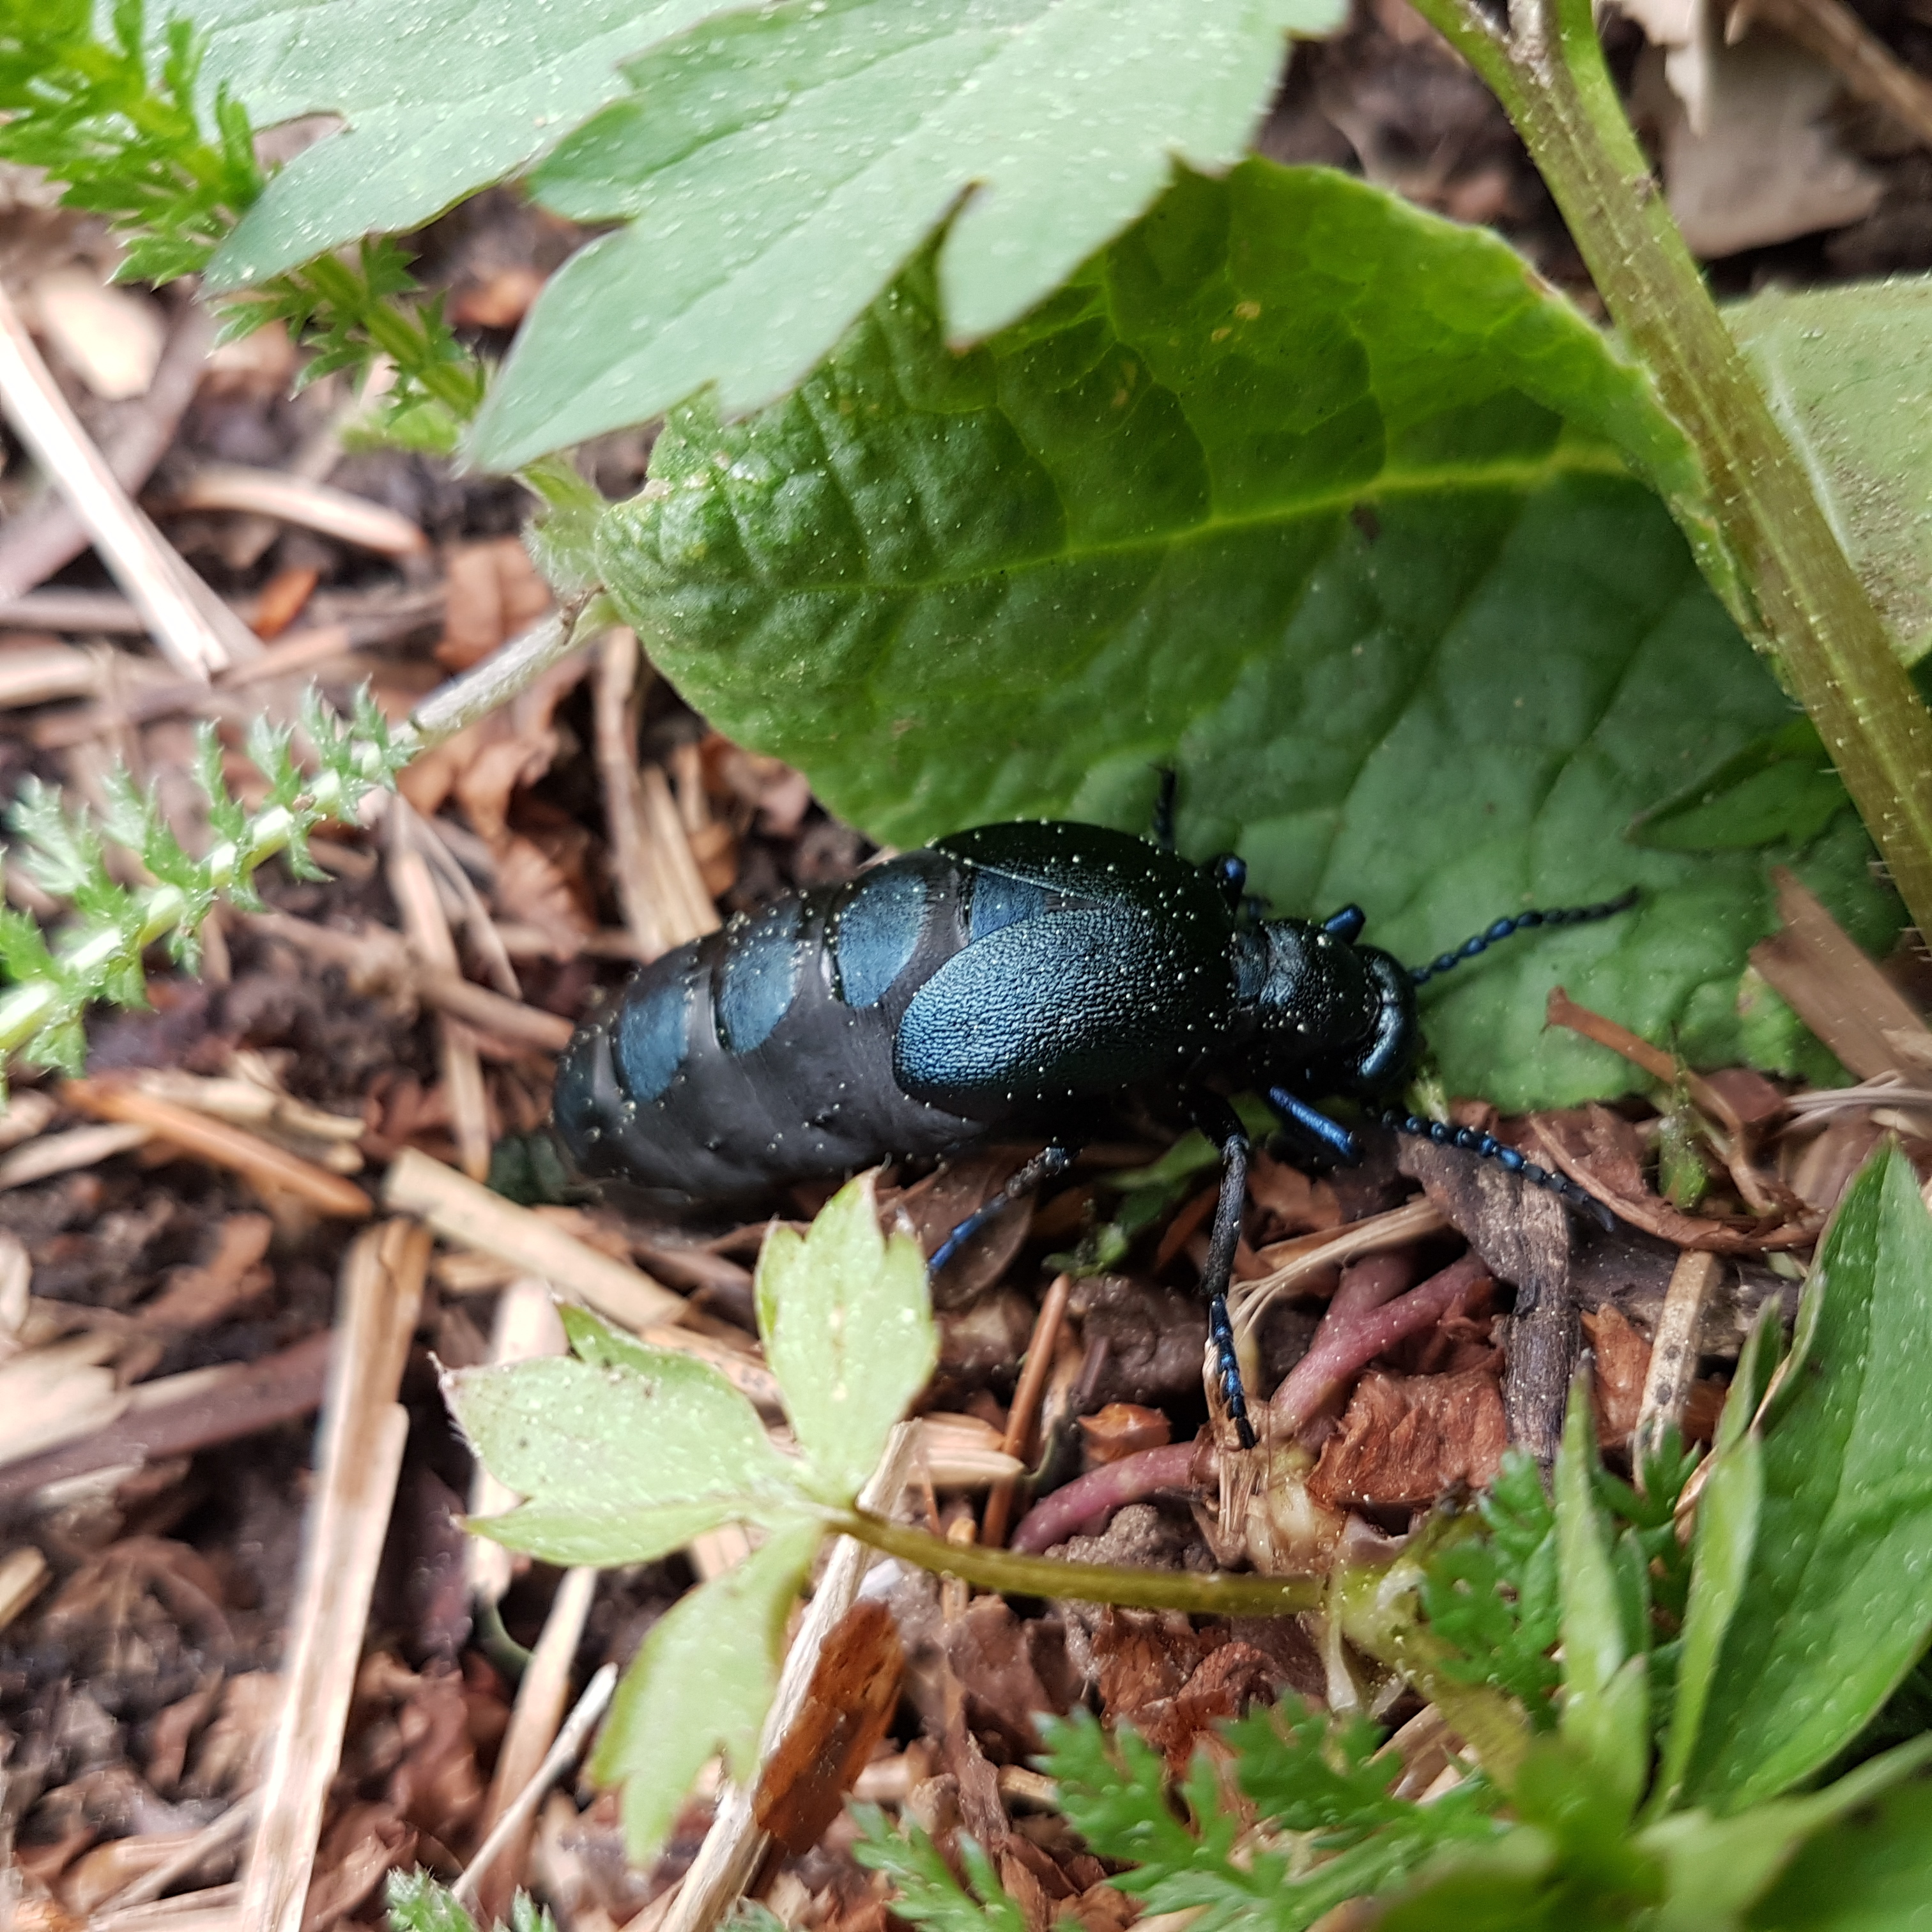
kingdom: Animalia
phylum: Arthropoda
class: Insecta
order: Coleoptera
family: Meloidae
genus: Meloe
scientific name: Meloe violaceus
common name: Violet oil-beetle
